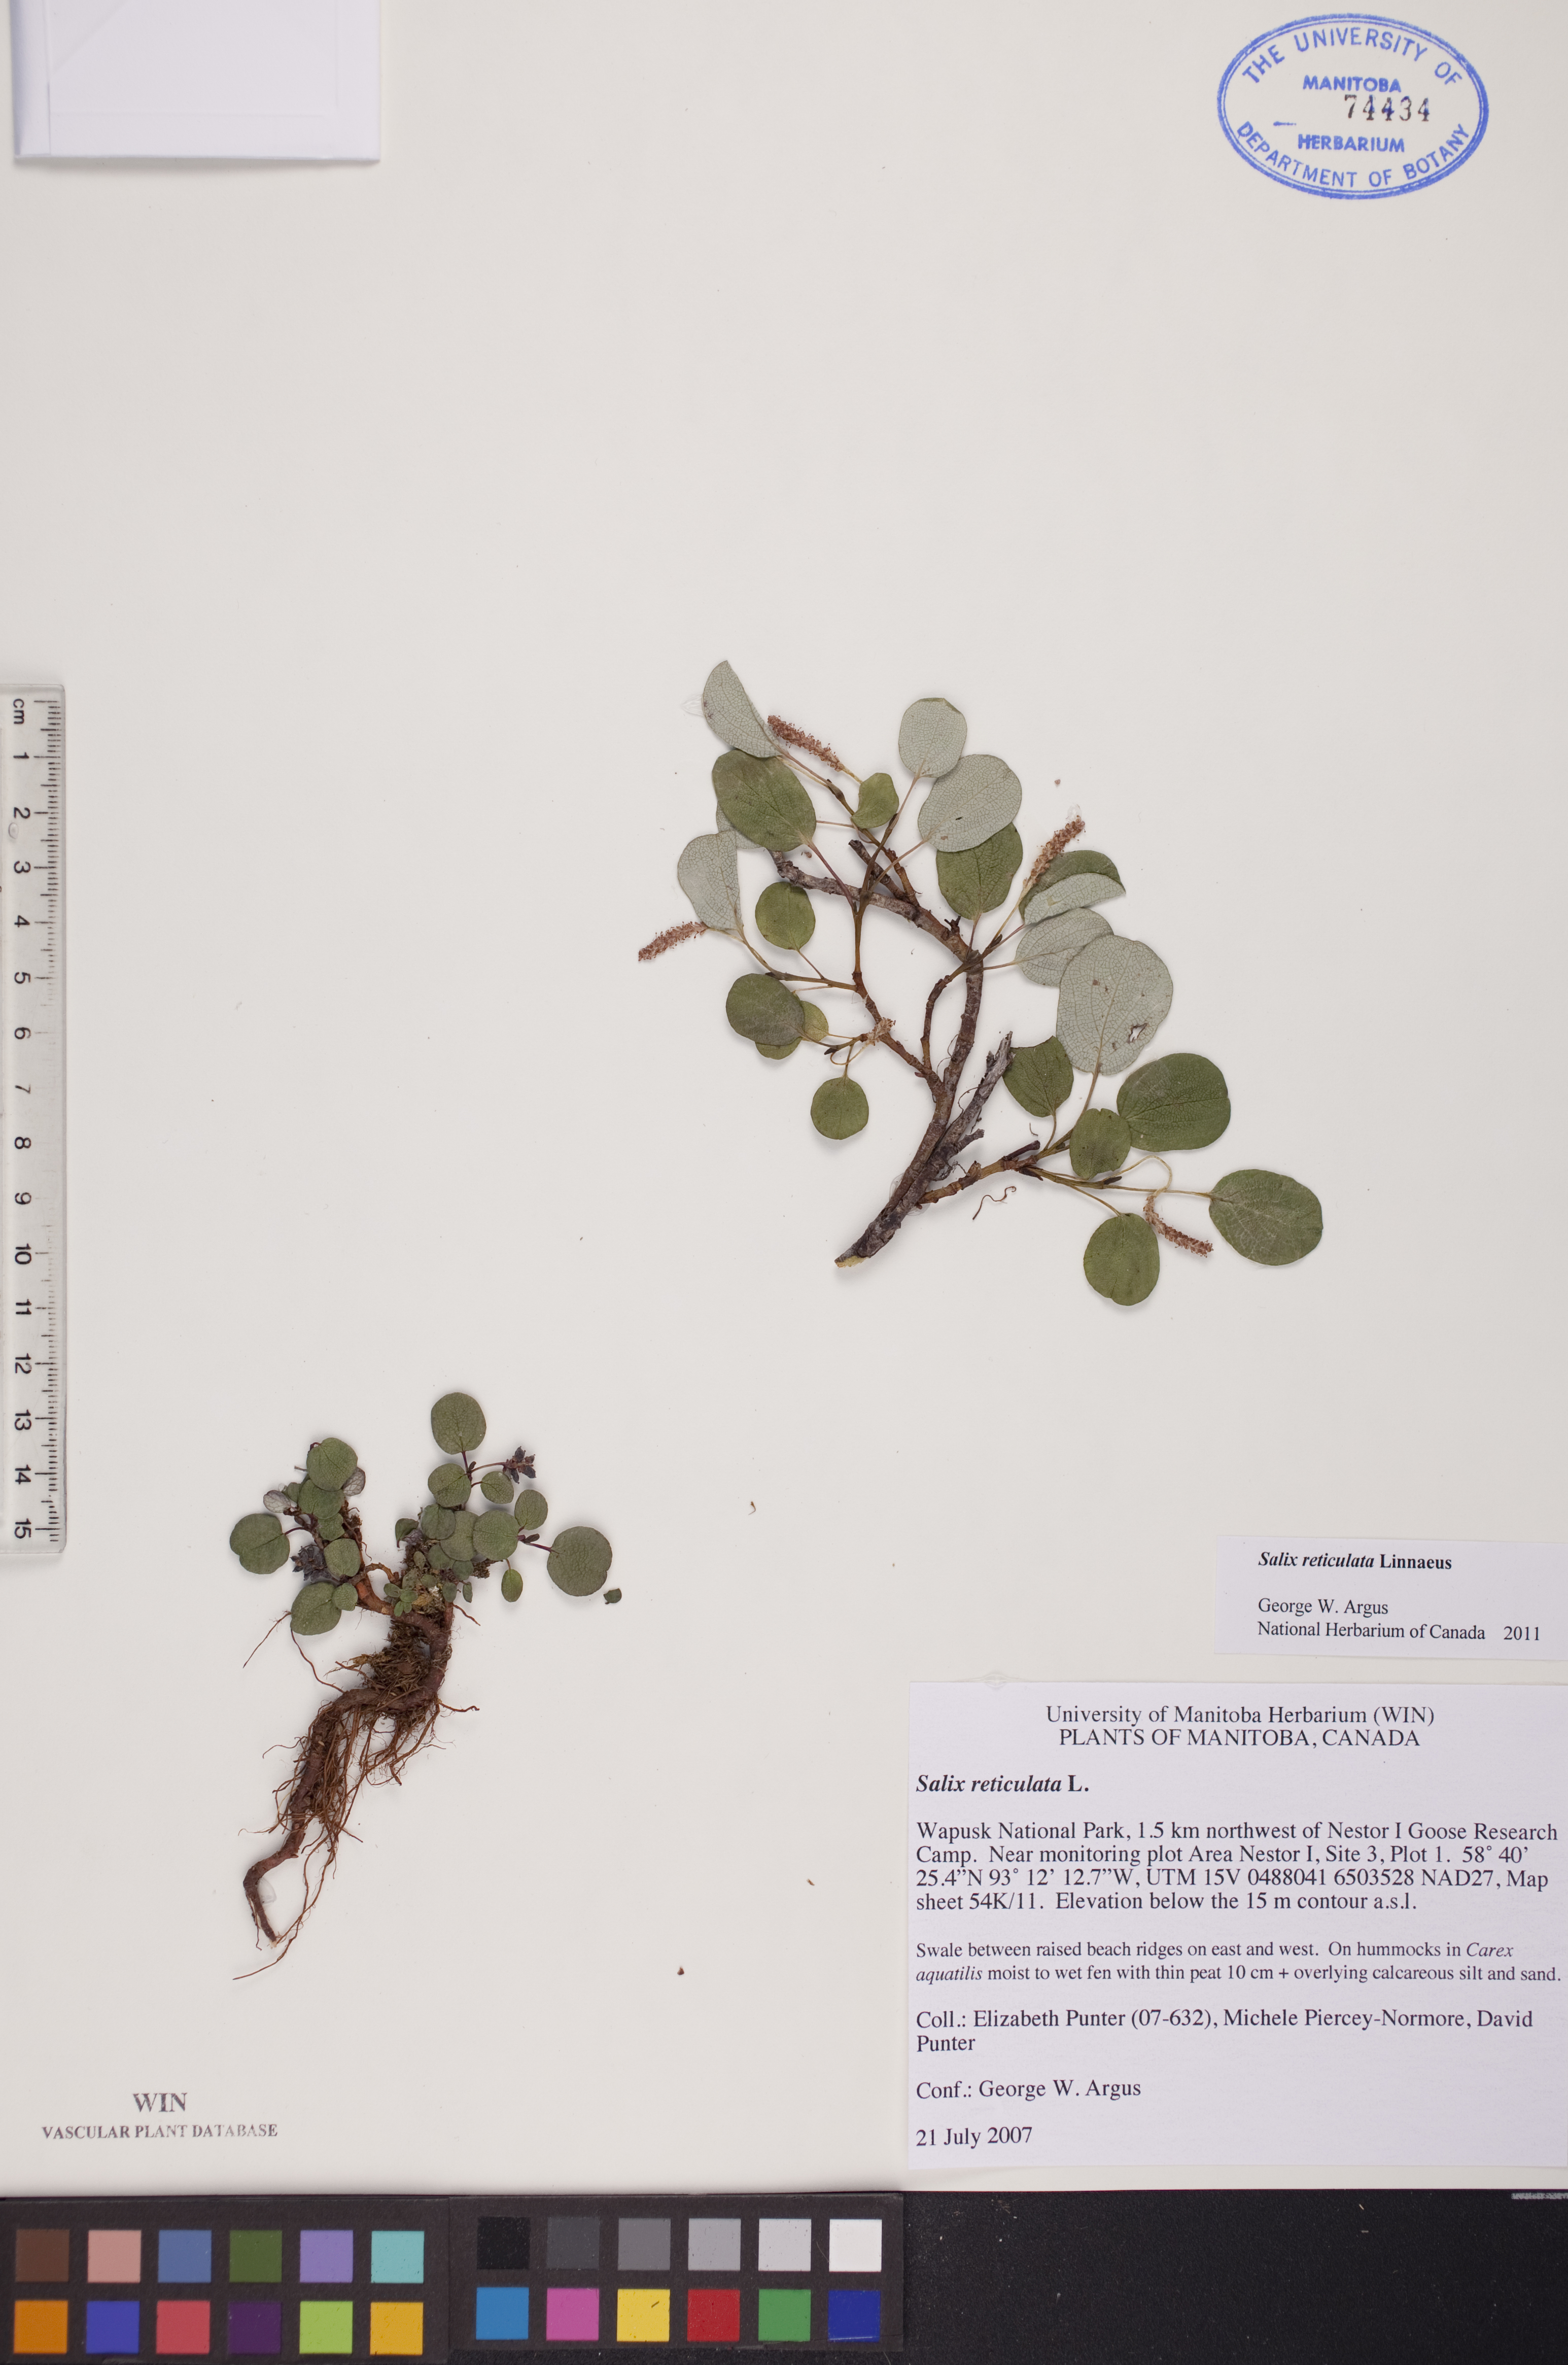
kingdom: Plantae
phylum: Tracheophyta
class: Magnoliopsida
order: Malpighiales
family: Salicaceae
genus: Salix
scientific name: Salix reticulata
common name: Net-leaved willow
